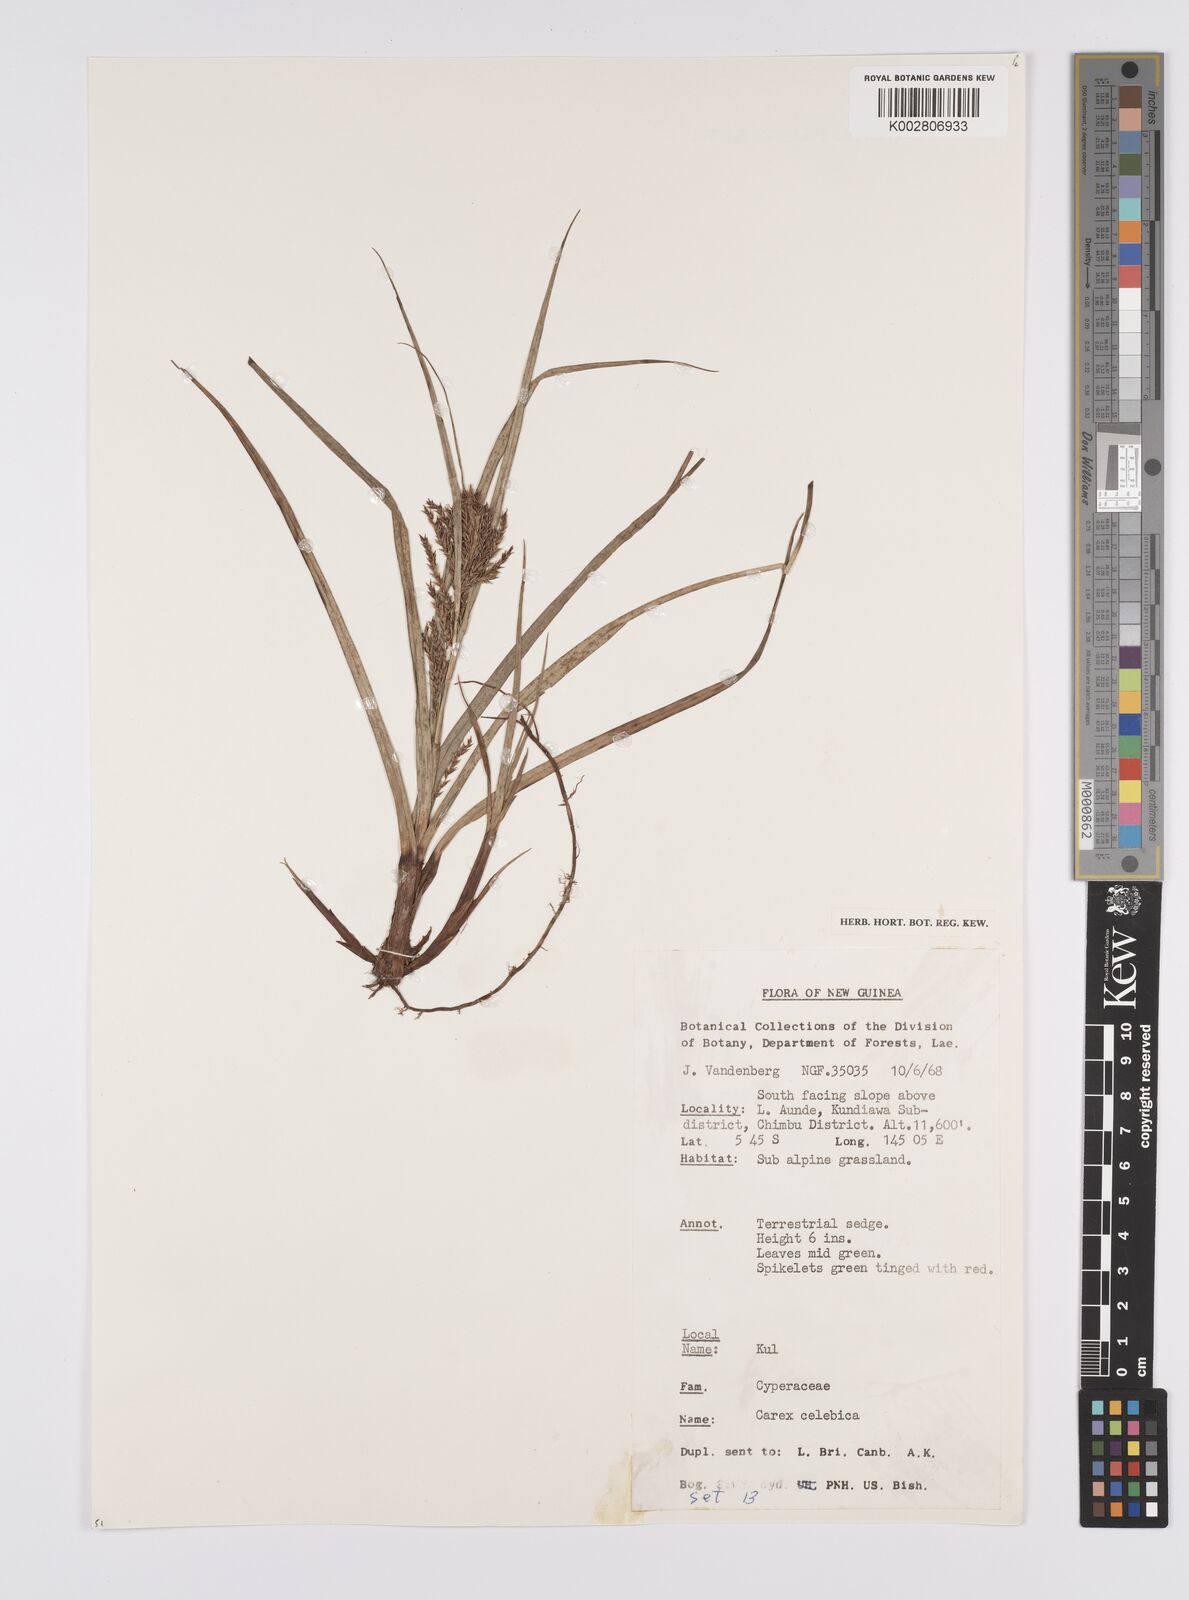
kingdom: Plantae
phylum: Tracheophyta
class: Liliopsida
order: Poales
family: Cyperaceae
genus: Carex
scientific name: Carex celebica
